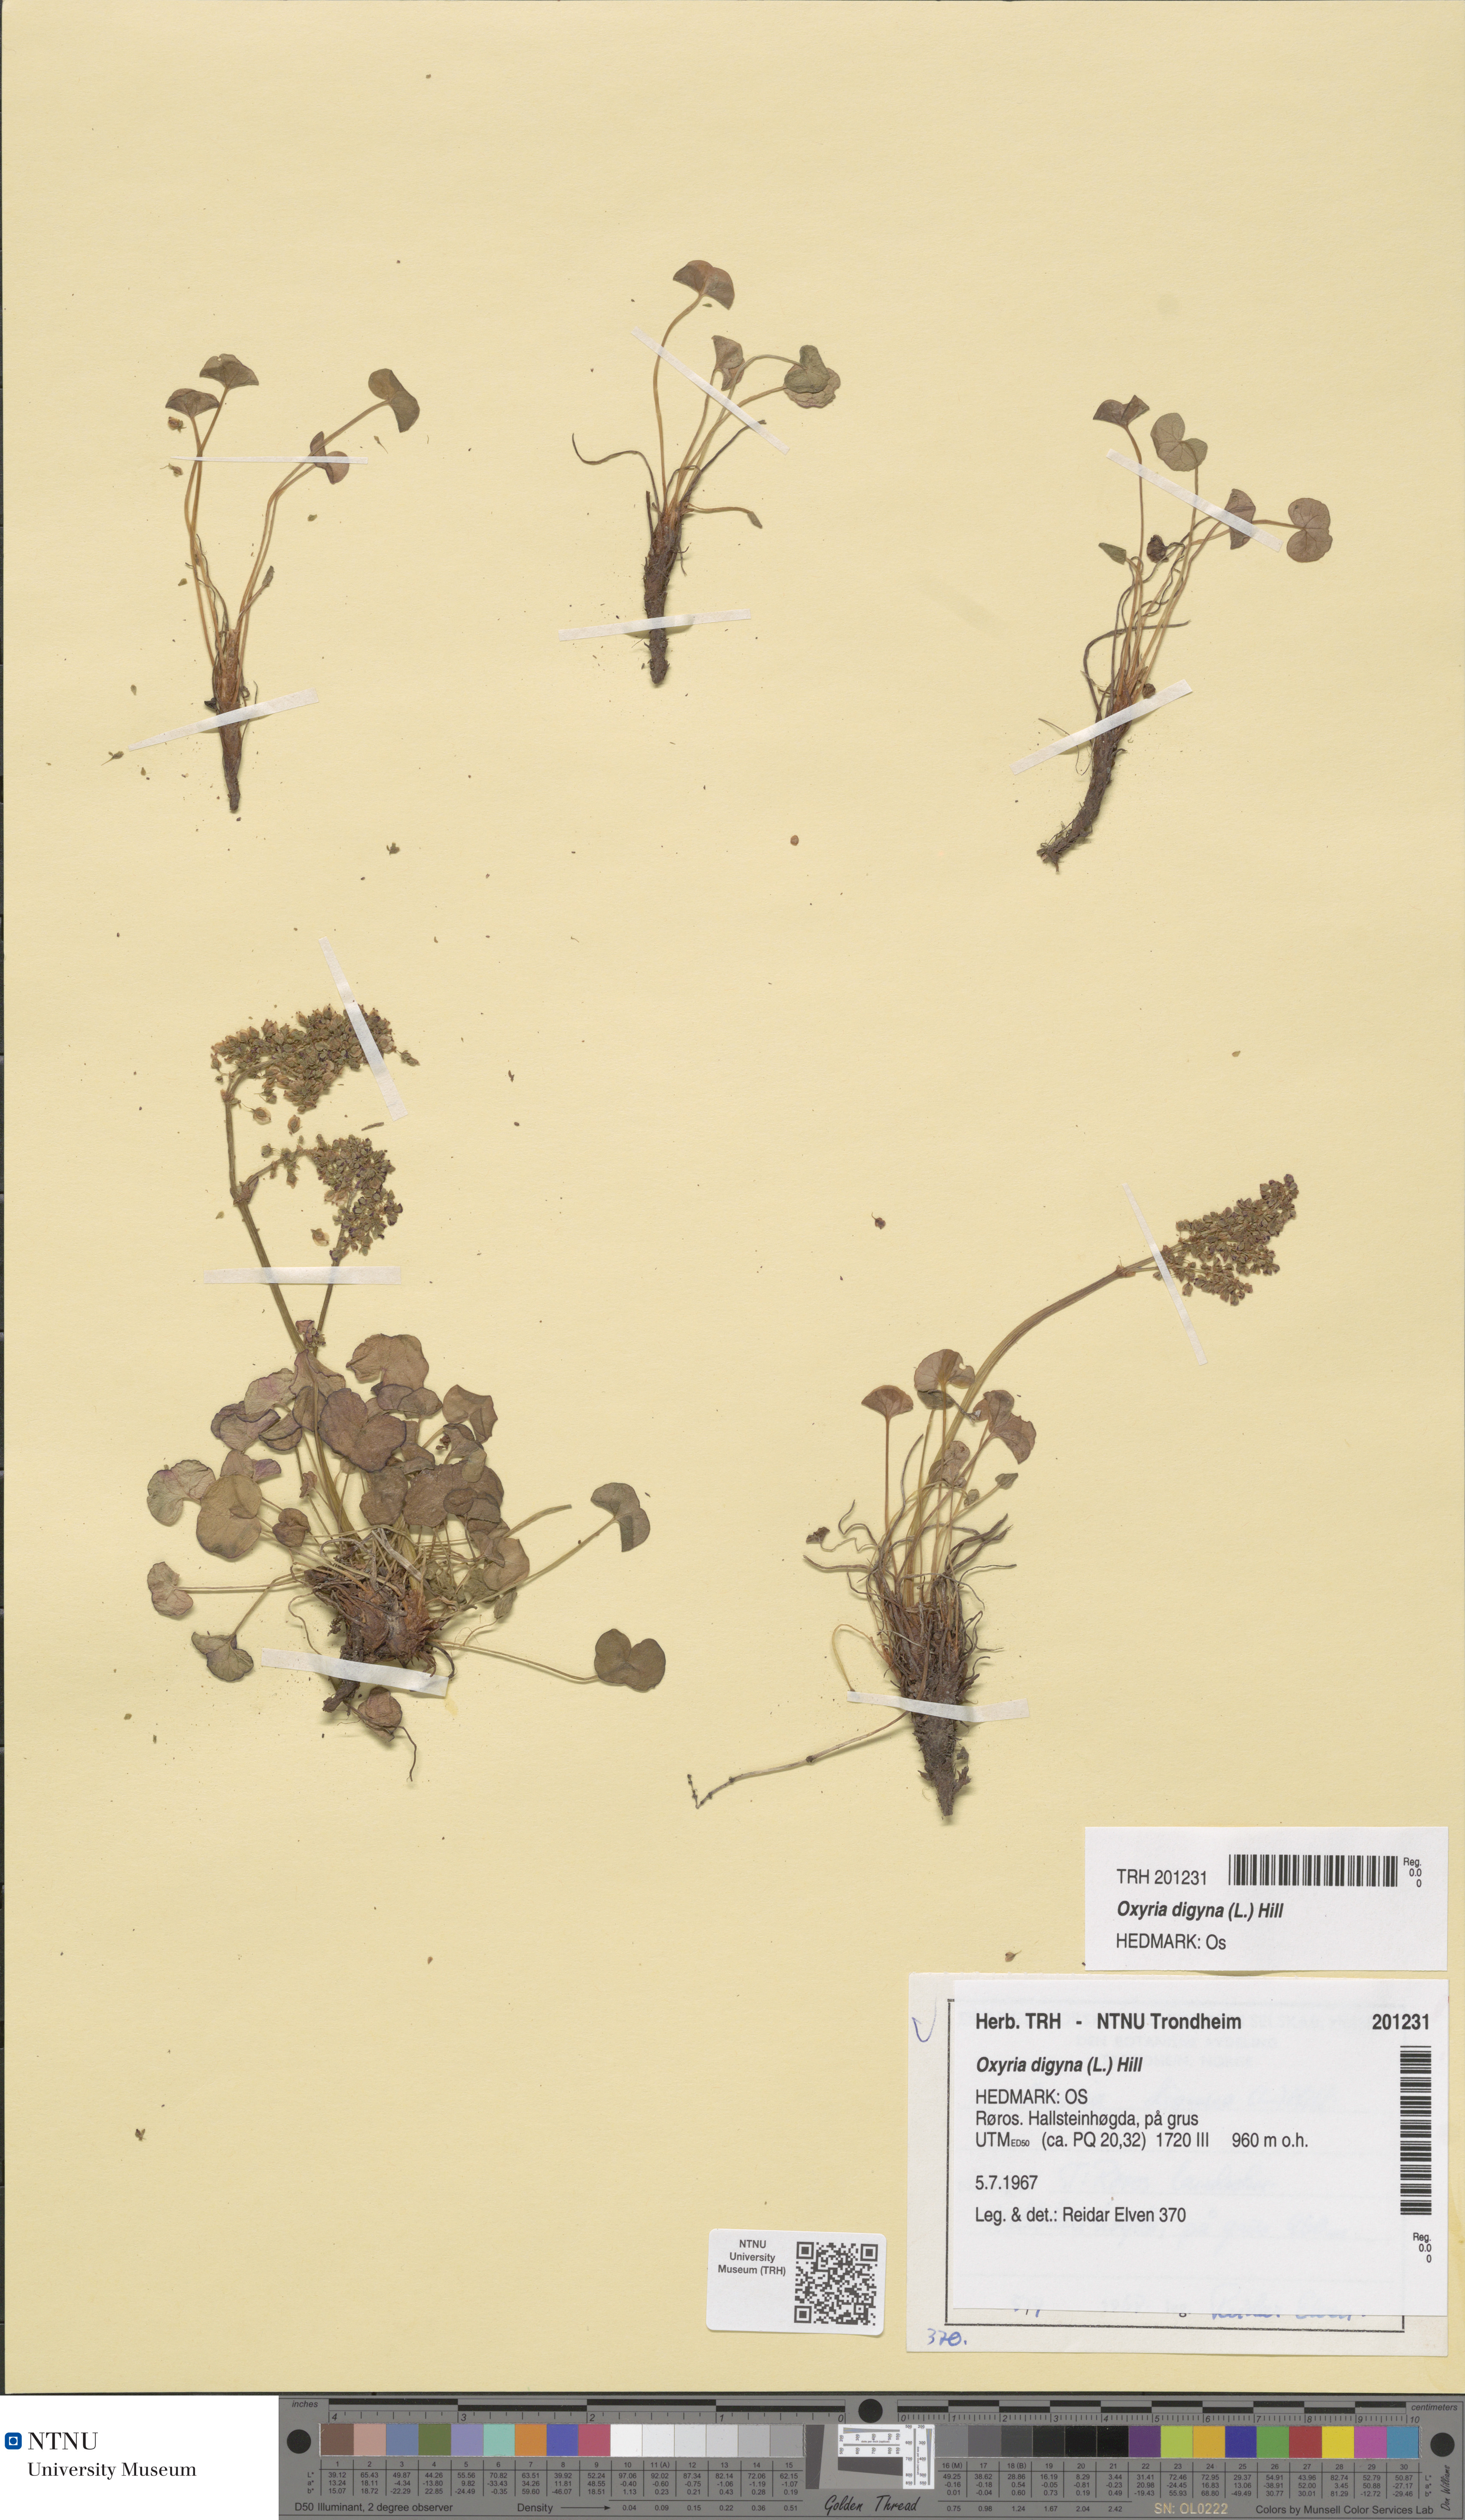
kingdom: Plantae
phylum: Tracheophyta
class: Magnoliopsida
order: Caryophyllales
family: Polygonaceae
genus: Oxyria
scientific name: Oxyria digyna
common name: Alpine mountain-sorrel
